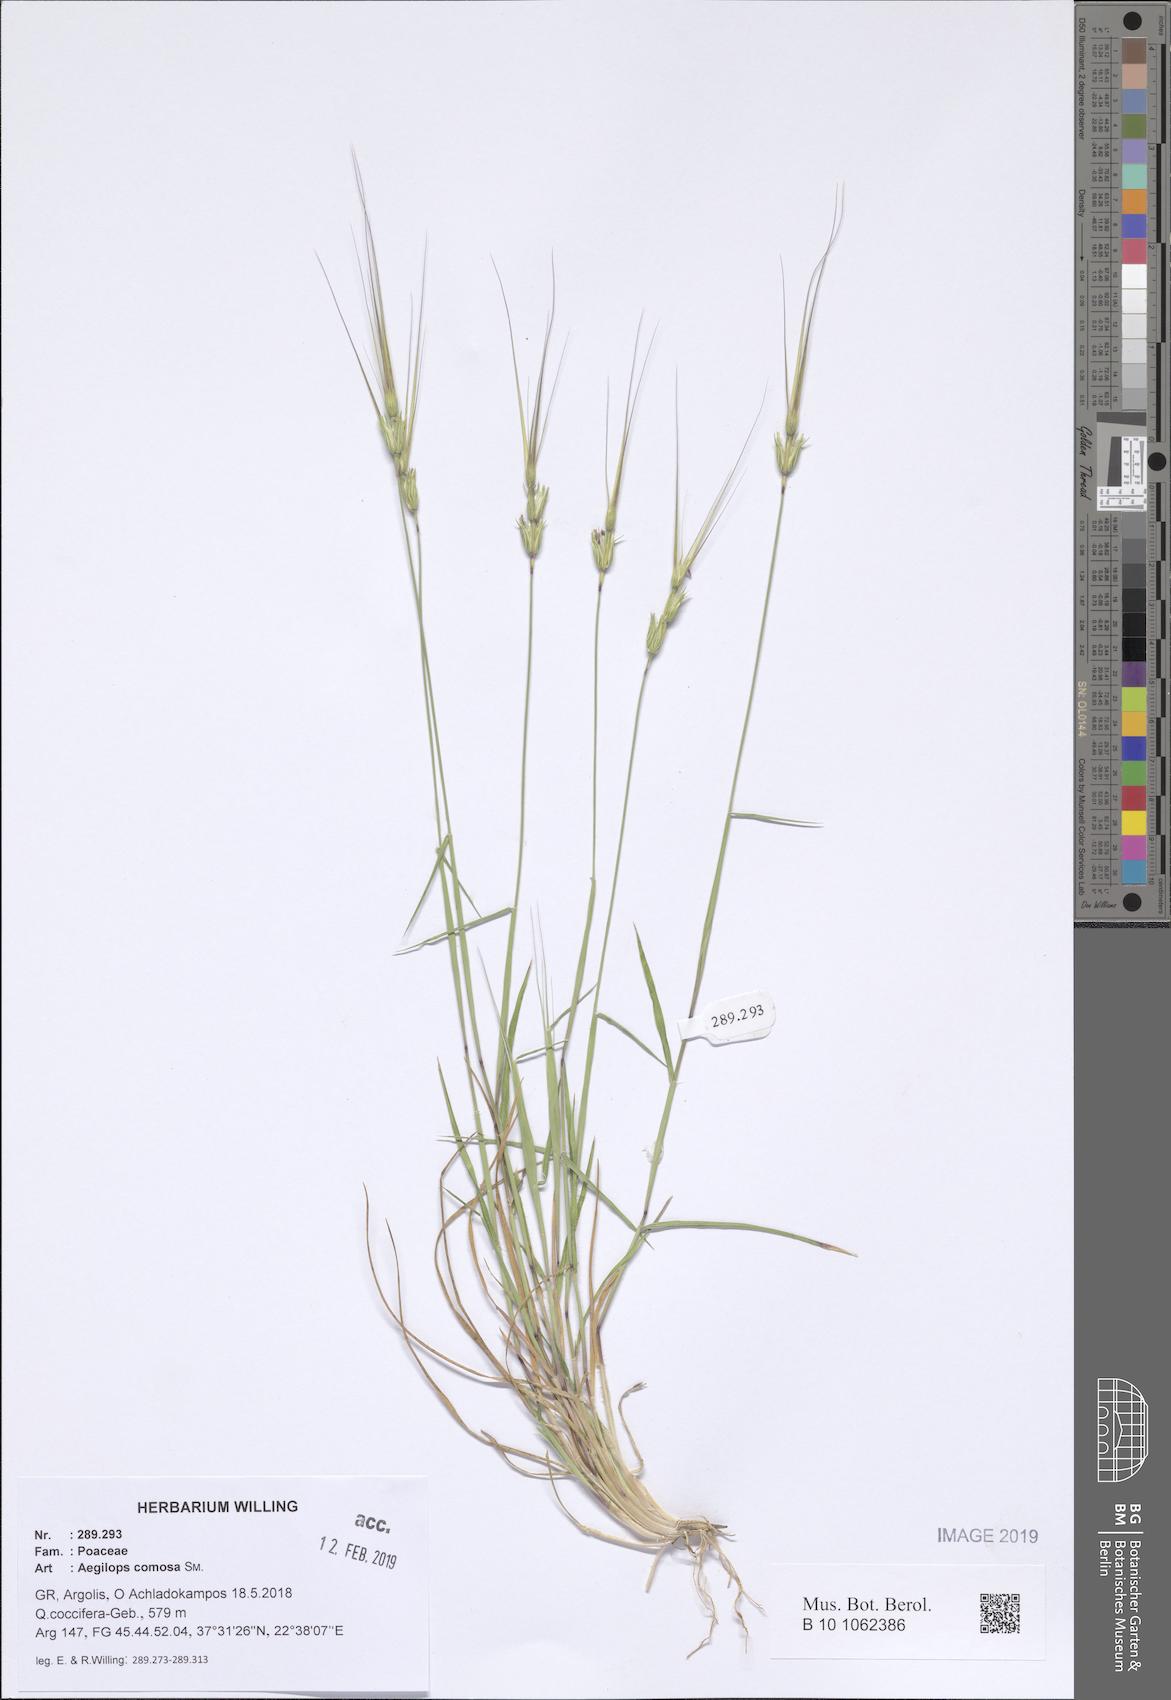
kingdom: Plantae
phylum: Tracheophyta
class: Liliopsida
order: Poales
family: Poaceae
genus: Aegilops
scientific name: Aegilops comosa
